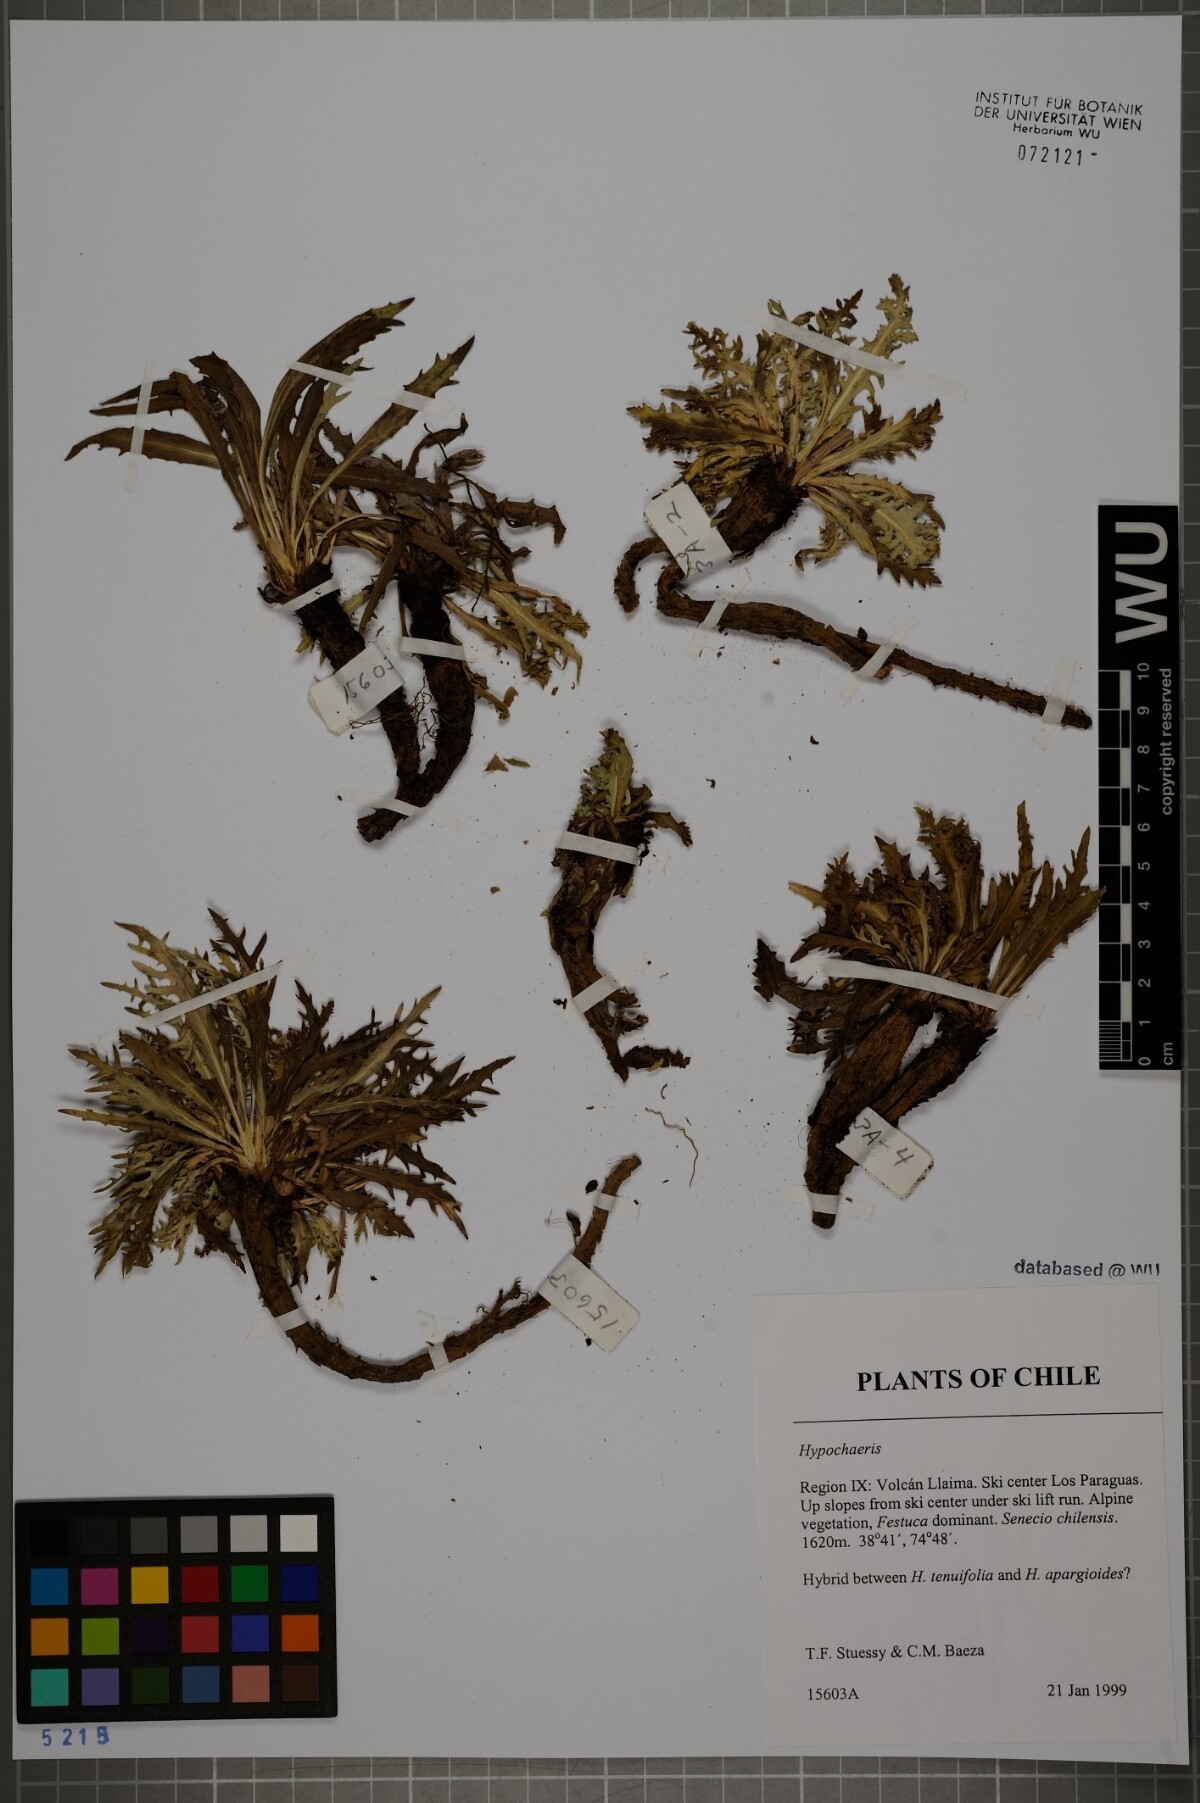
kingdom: Plantae
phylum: Tracheophyta
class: Magnoliopsida
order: Asterales
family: Asteraceae
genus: Hypochaeris
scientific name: Hypochaeris
